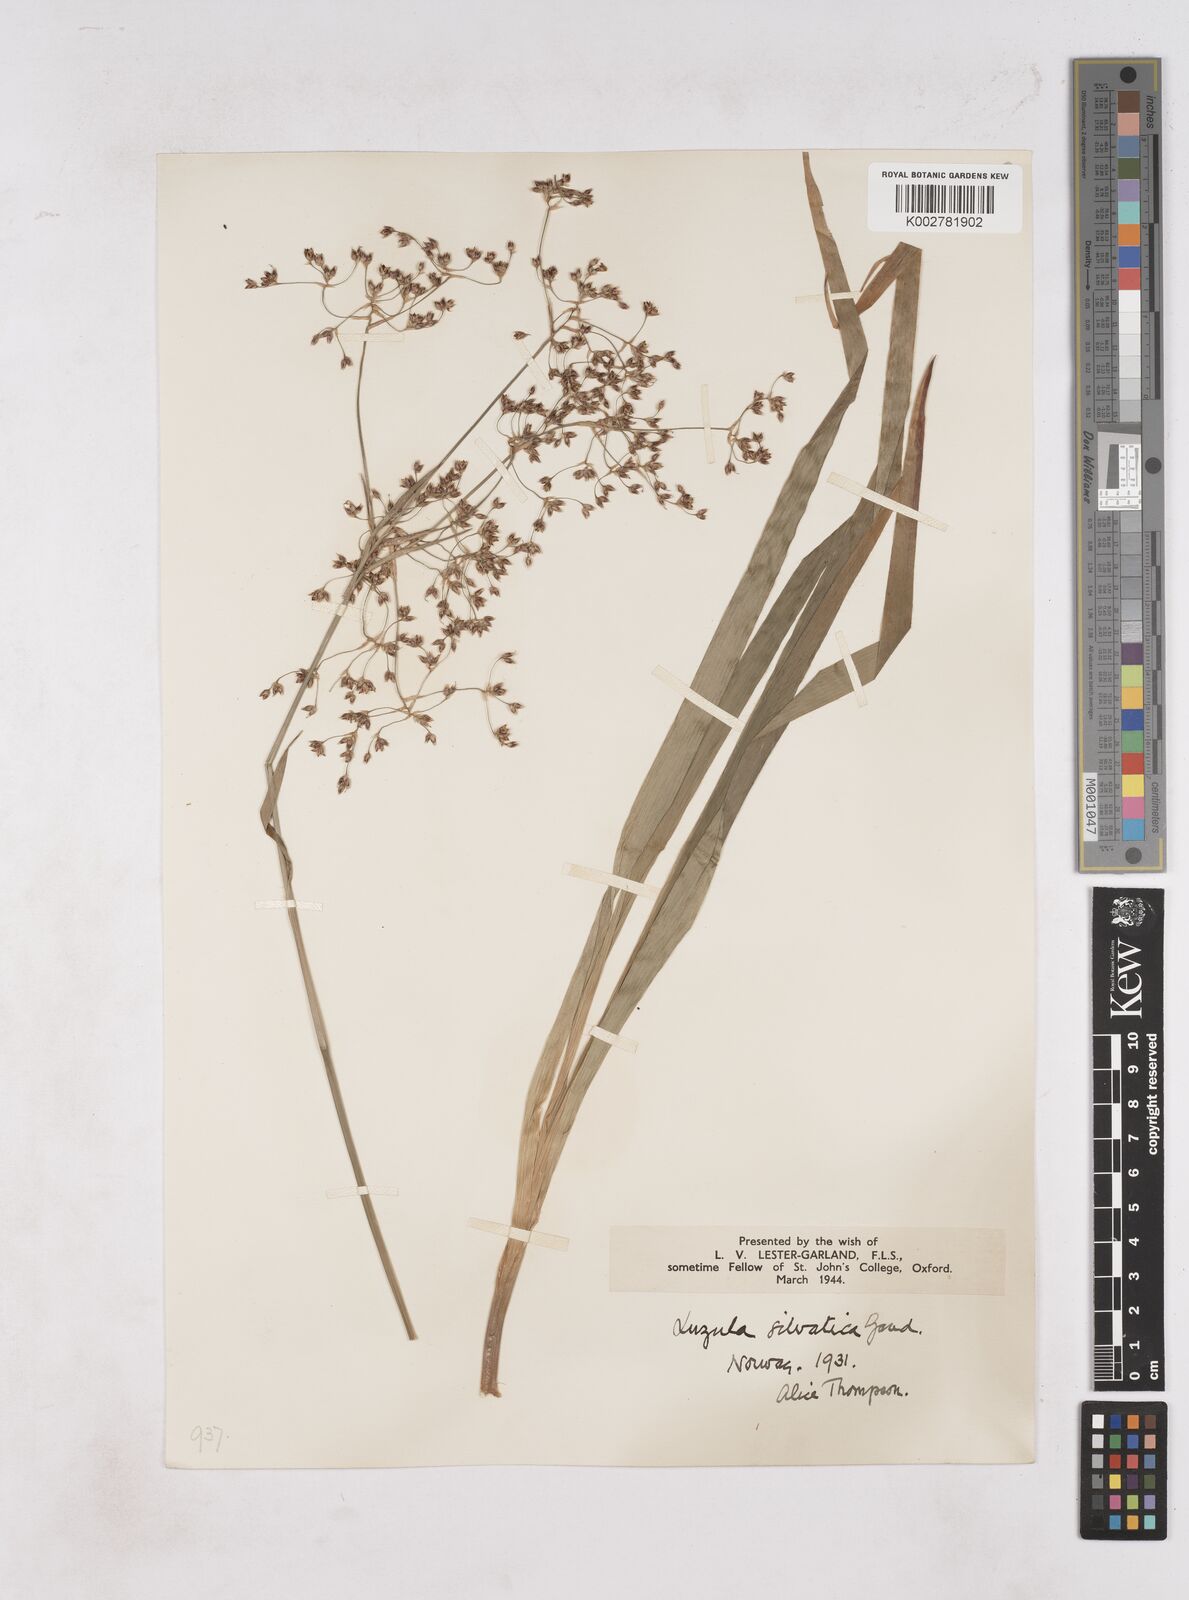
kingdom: Plantae
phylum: Tracheophyta
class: Liliopsida
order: Poales
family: Juncaceae
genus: Luzula
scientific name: Luzula sylvatica
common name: Great wood-rush
